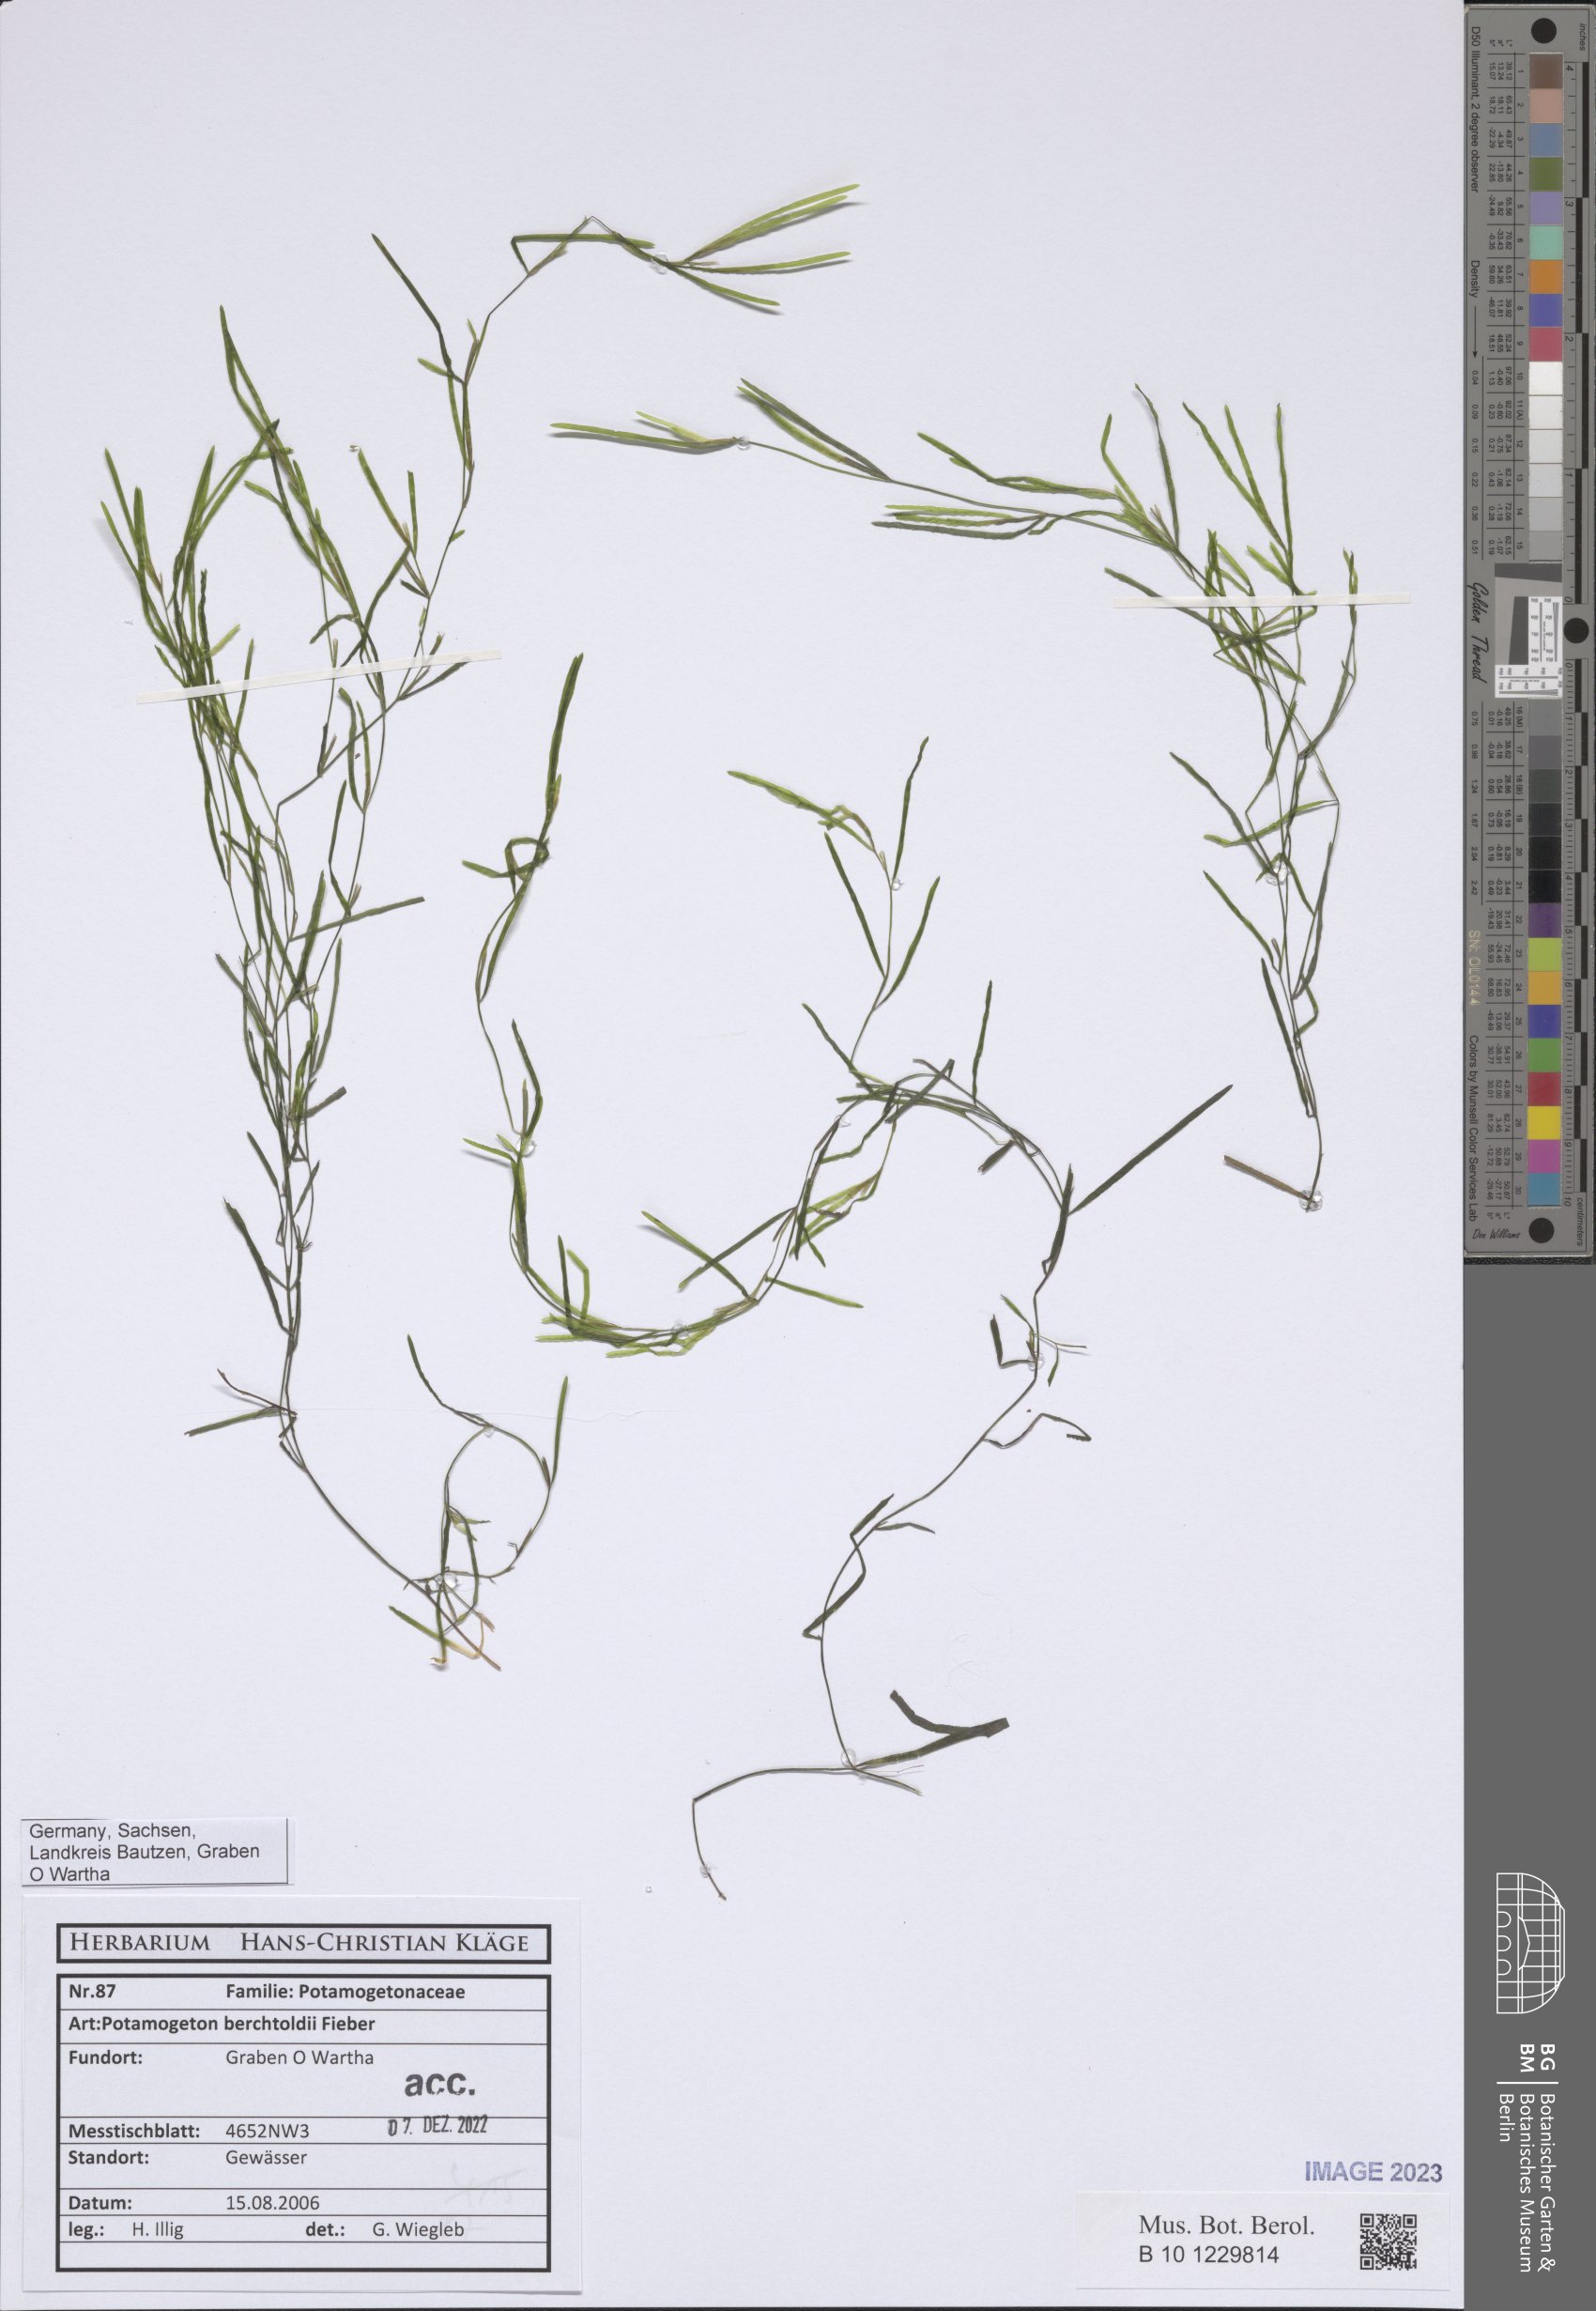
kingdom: Plantae
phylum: Tracheophyta
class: Liliopsida
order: Alismatales
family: Potamogetonaceae
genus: Potamogeton
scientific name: Potamogeton berchtoldii
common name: Small pondweed
